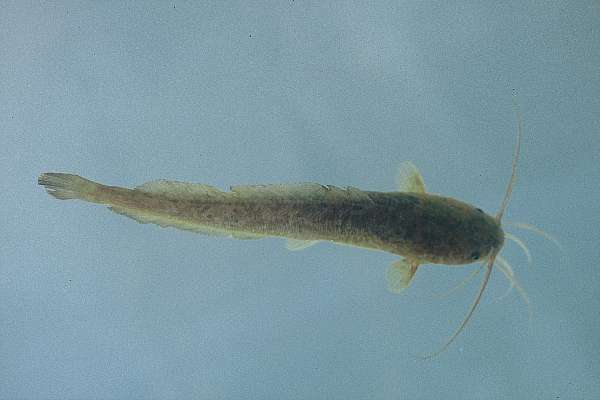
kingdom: Animalia
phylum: Chordata
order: Siluriformes
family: Clariidae
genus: Clarias
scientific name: Clarias ngamensis
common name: Blunt-toothed african catfish
